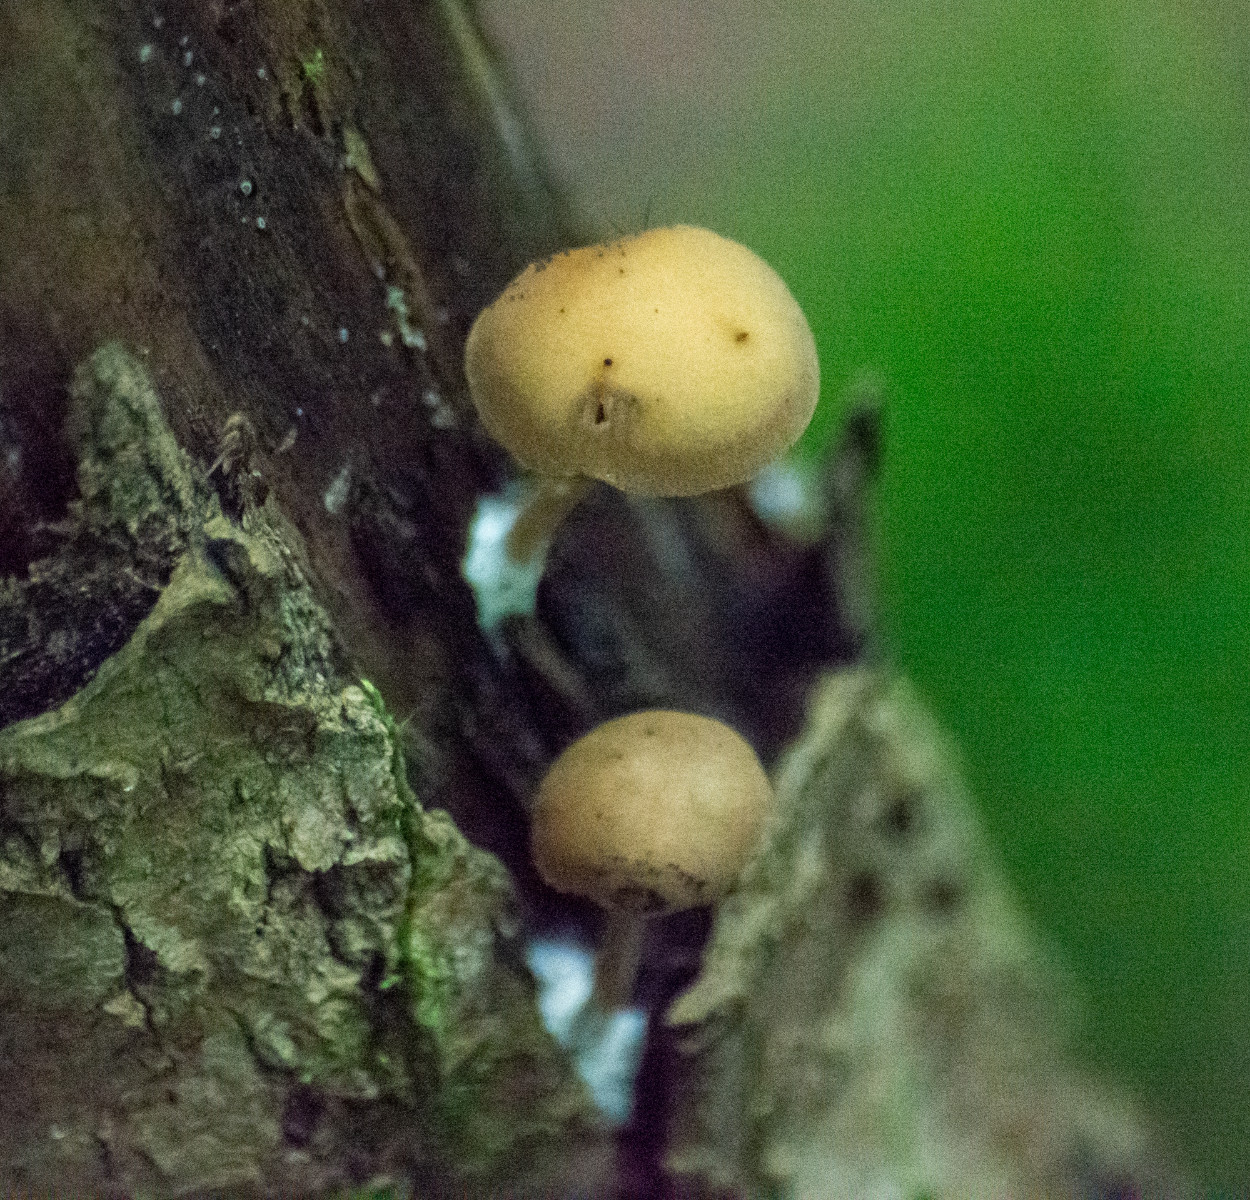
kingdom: Fungi
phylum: Basidiomycota
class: Agaricomycetes
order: Agaricales
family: Crepidotaceae
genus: Simocybe
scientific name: Simocybe centunculus
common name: enlig skyggehat
